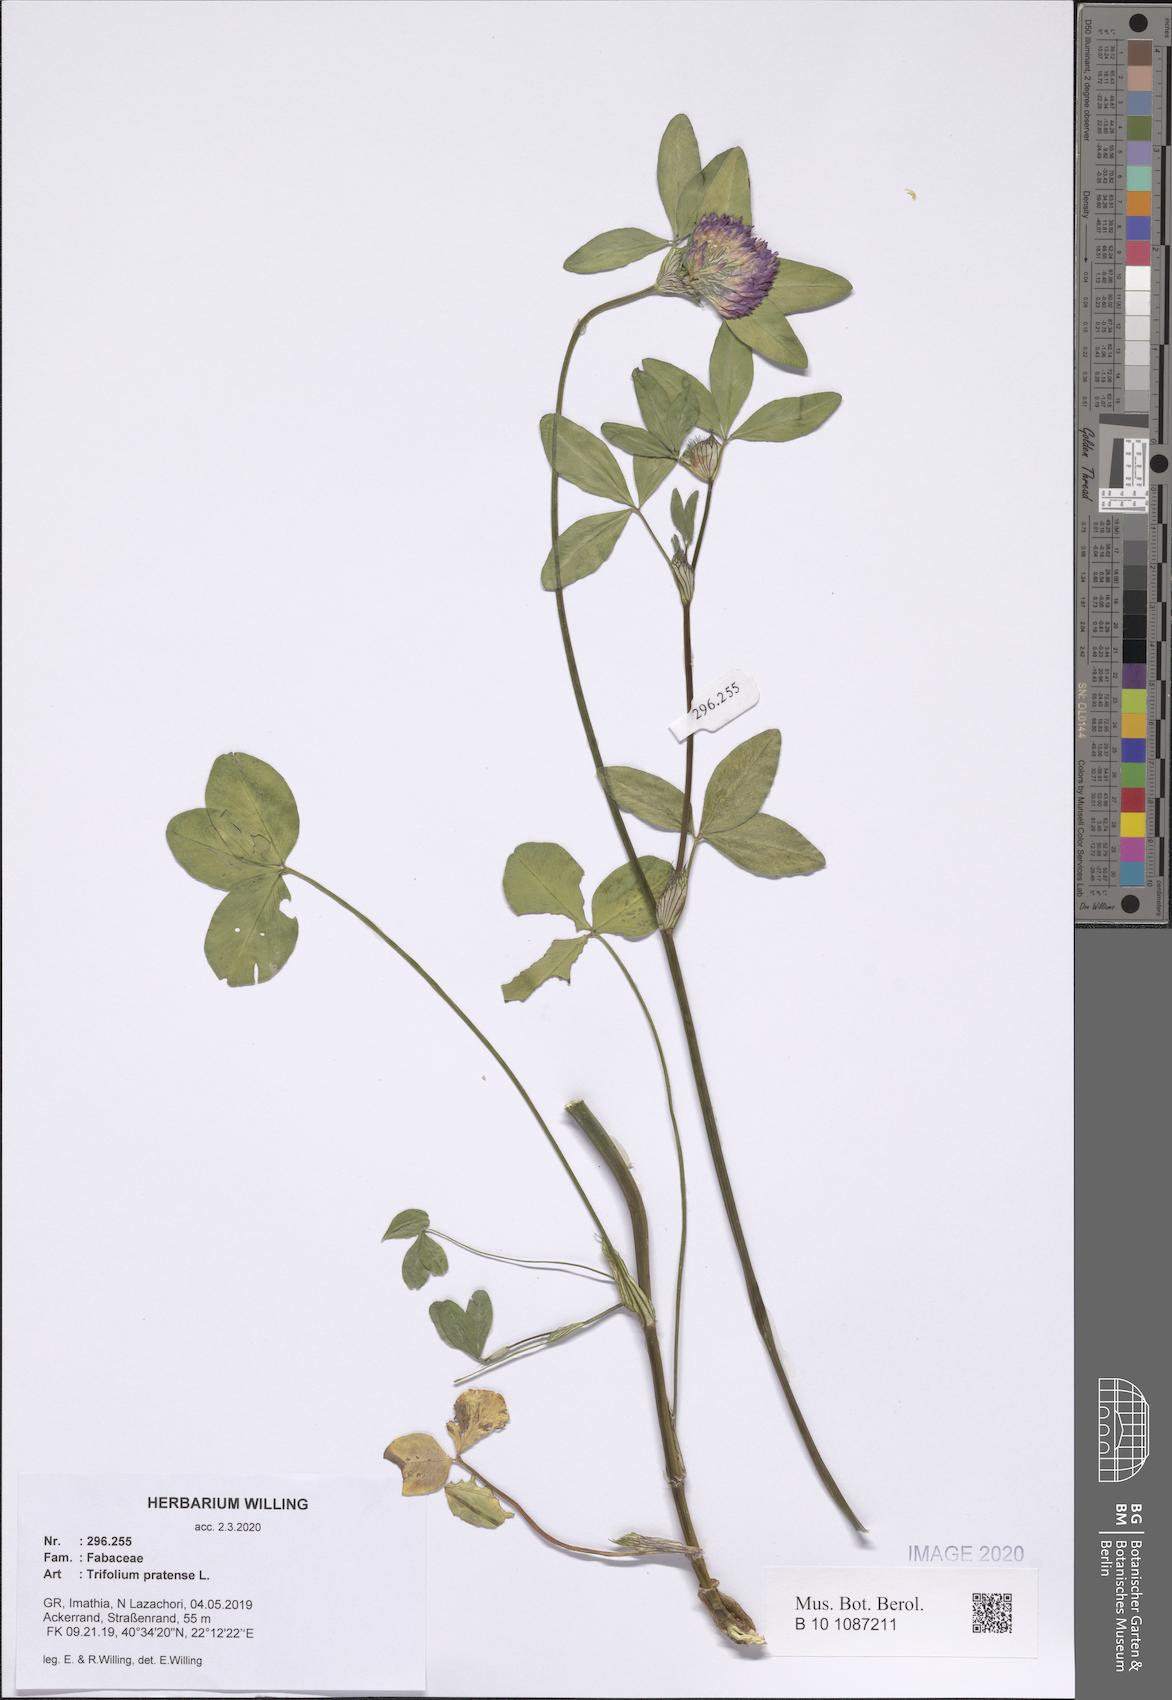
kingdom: Plantae
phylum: Tracheophyta
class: Magnoliopsida
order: Fabales
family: Fabaceae
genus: Trifolium
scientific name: Trifolium pratense
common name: Red clover
